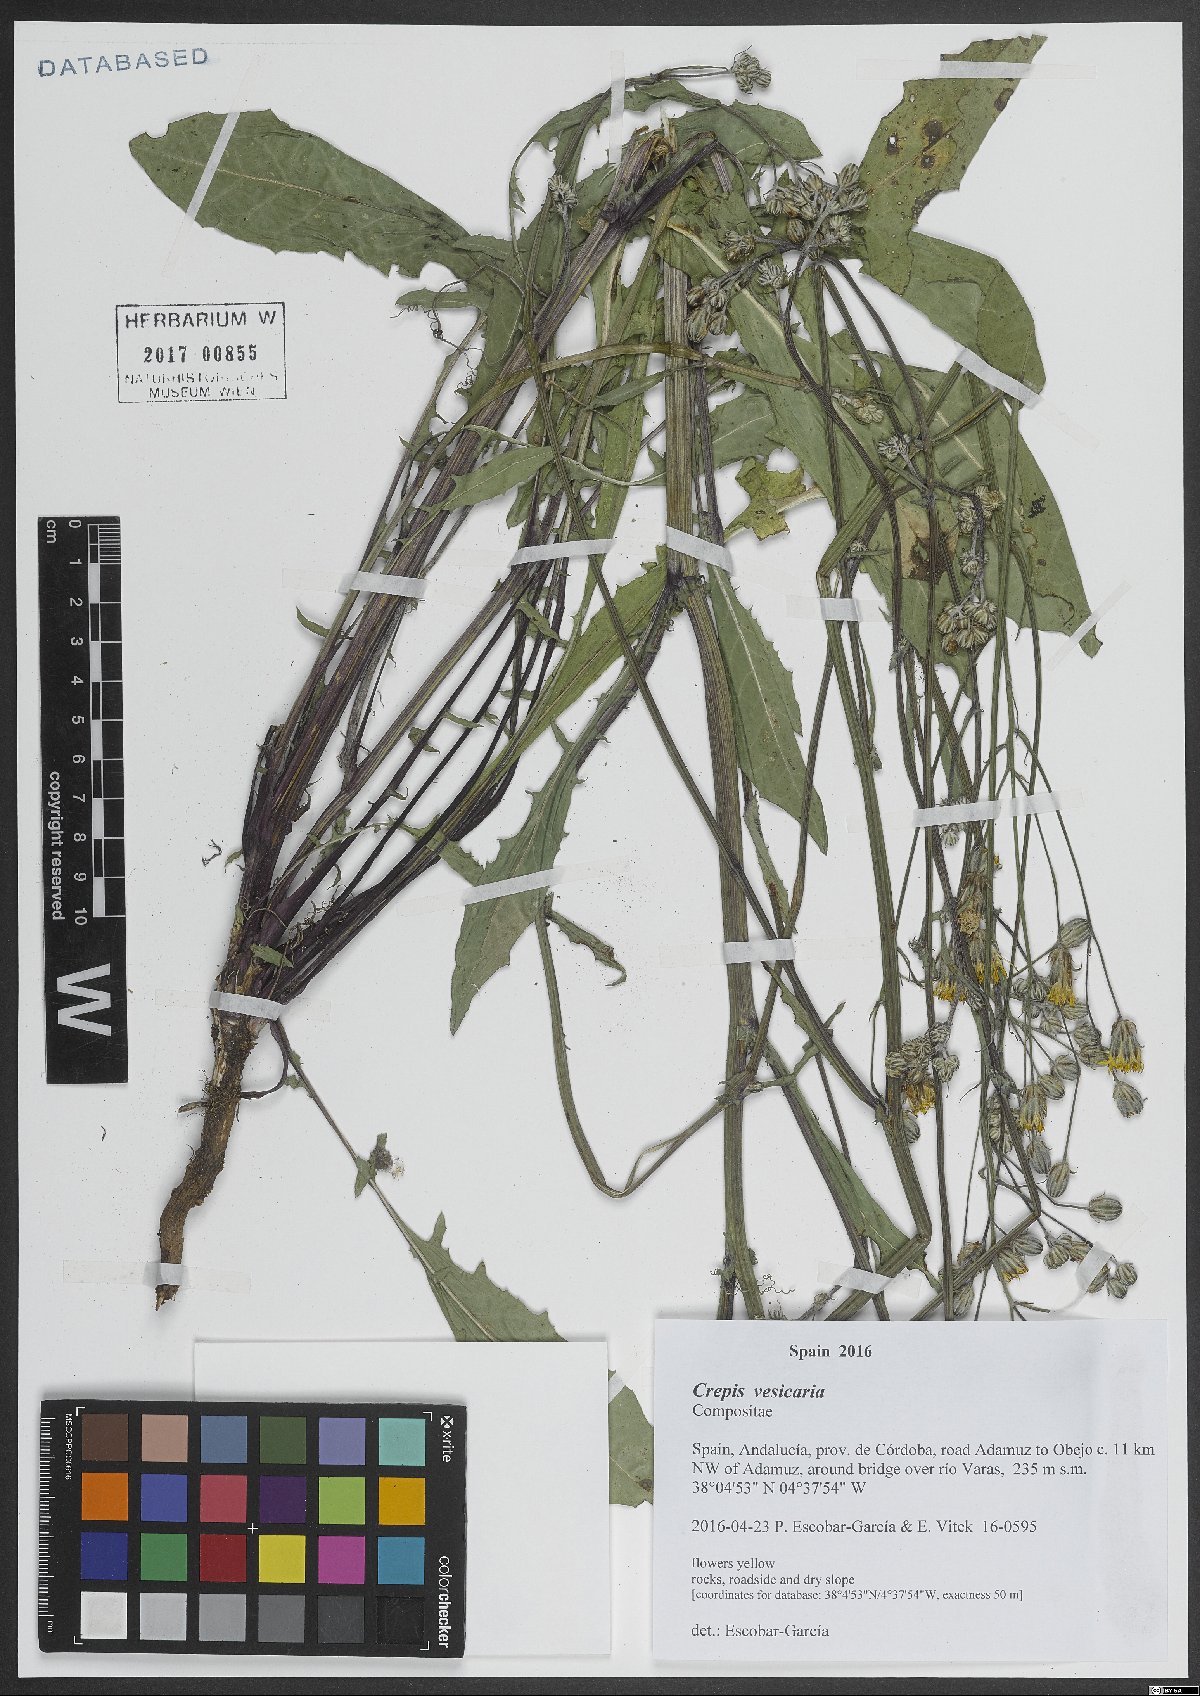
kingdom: Plantae
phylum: Tracheophyta
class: Magnoliopsida
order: Asterales
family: Asteraceae
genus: Crepis
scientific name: Crepis vesicaria
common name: Beaked hawksbeard
